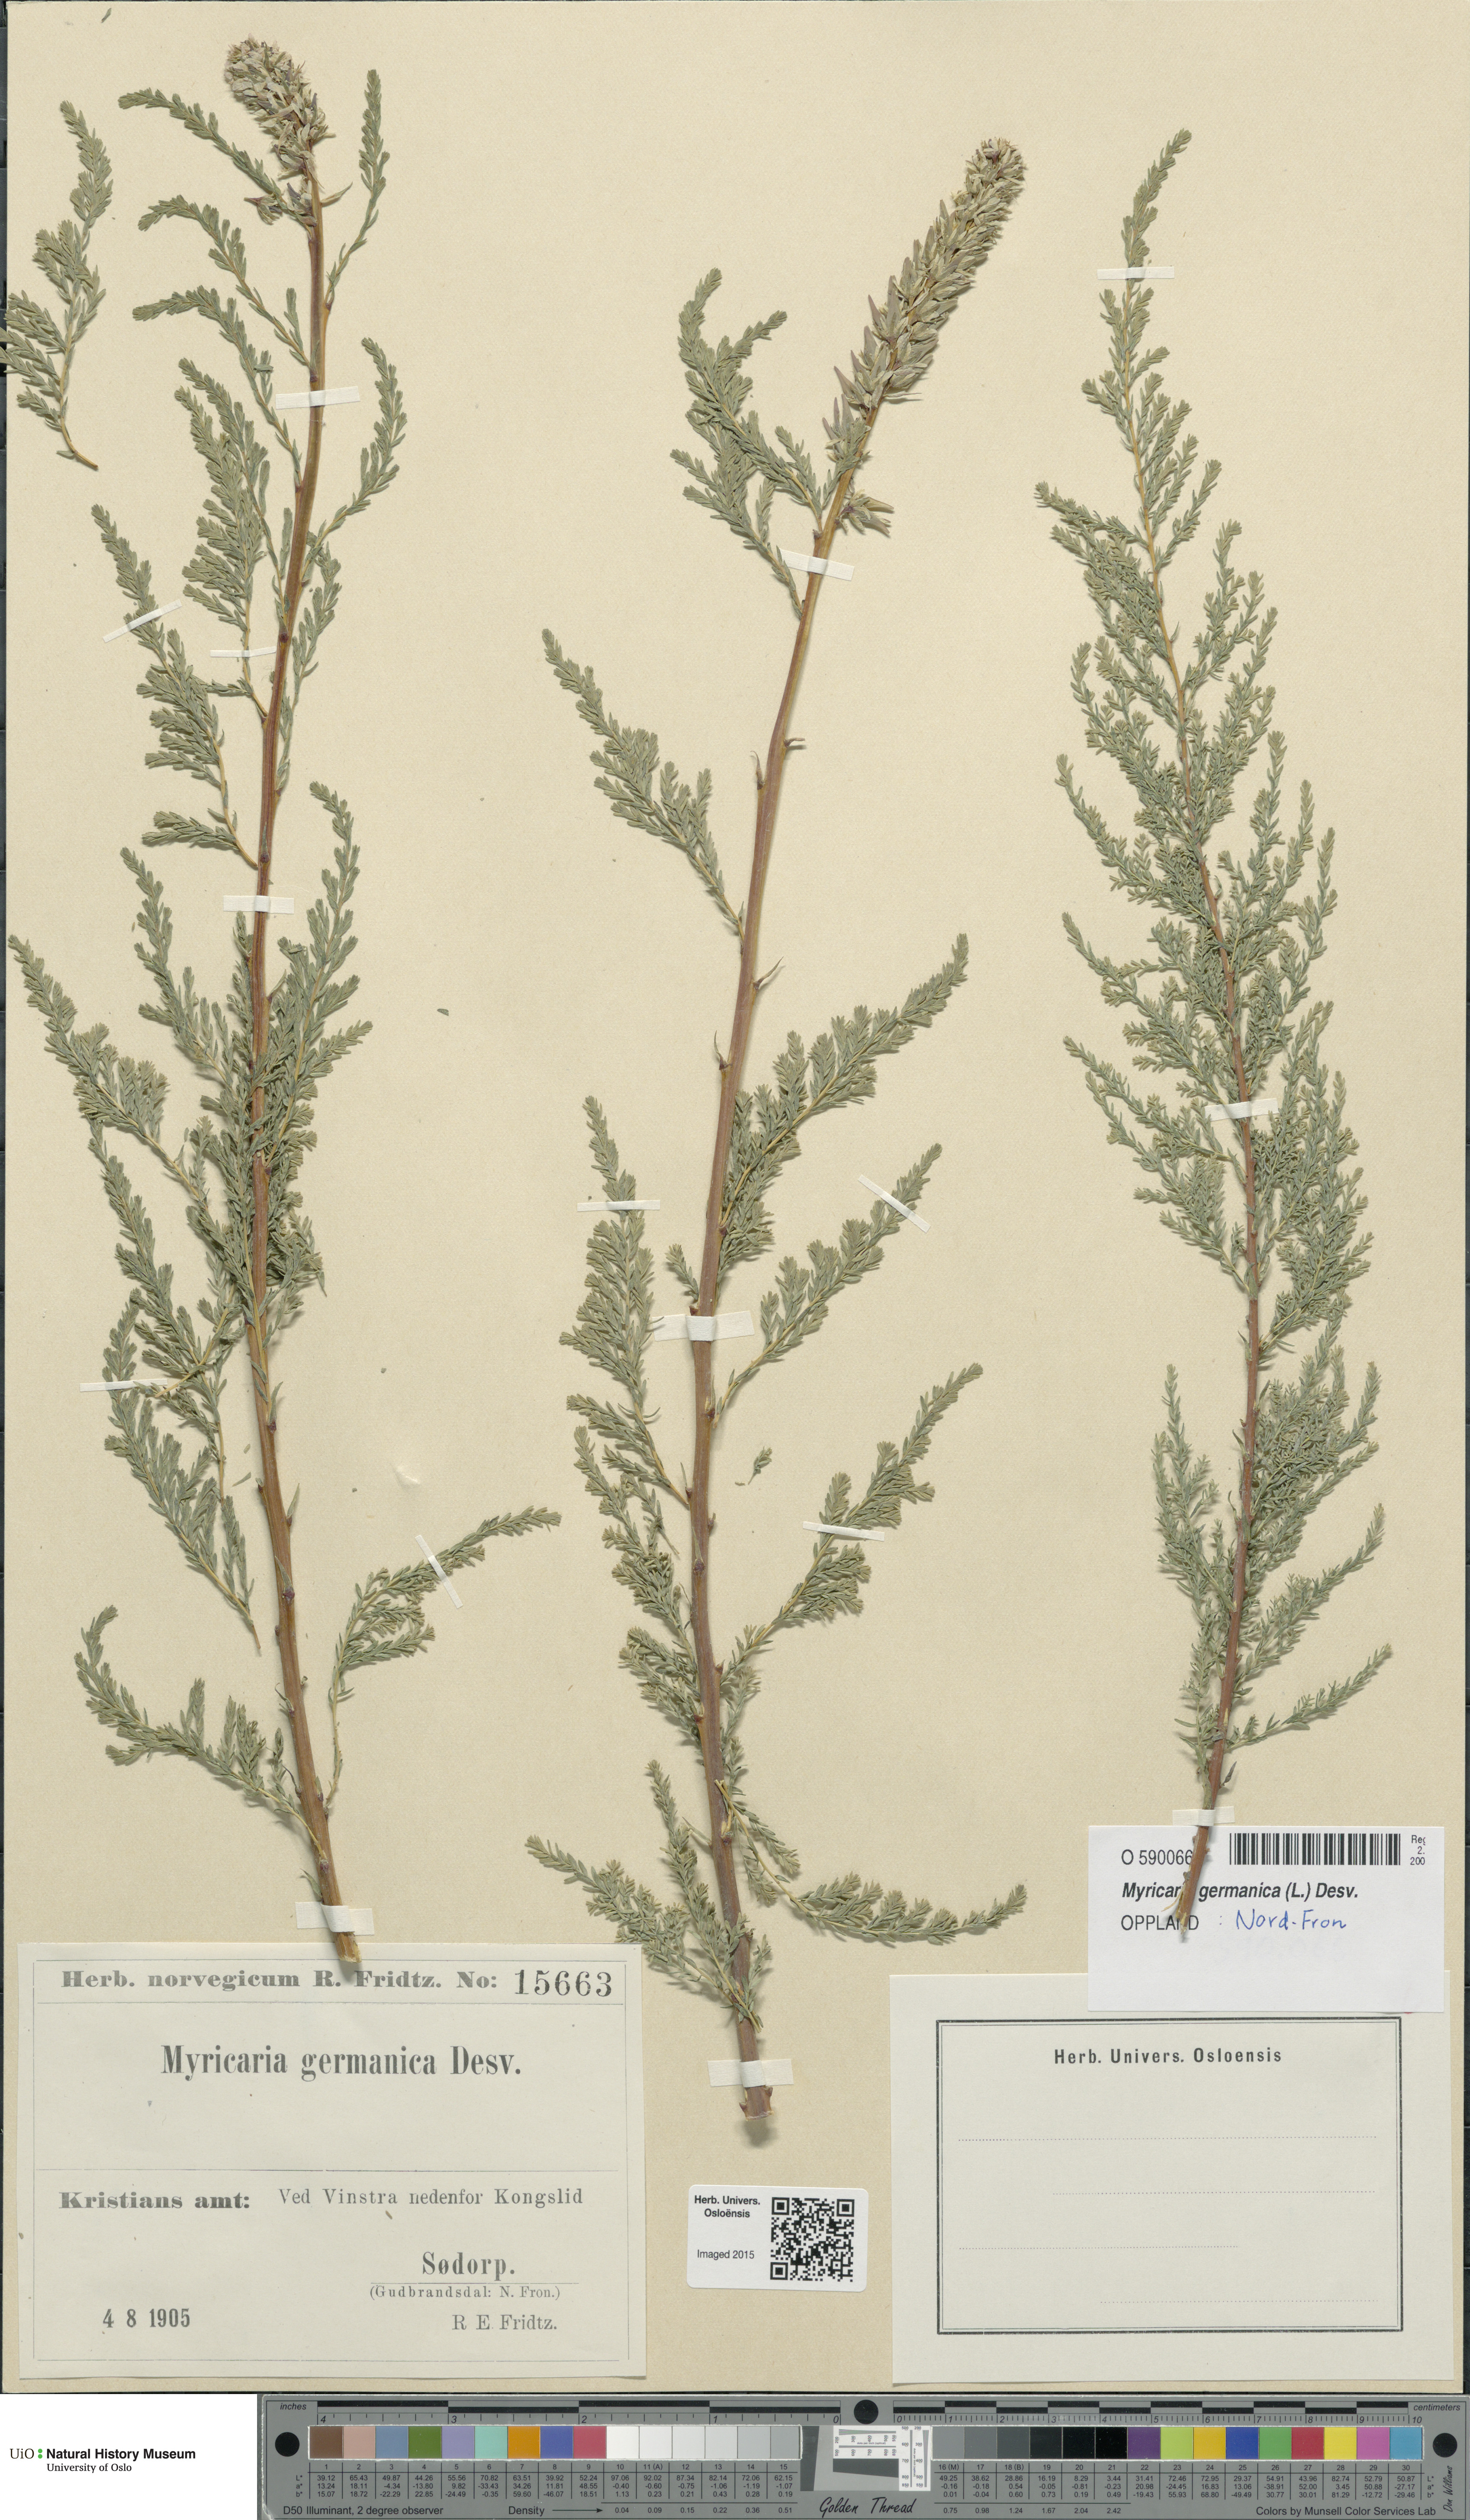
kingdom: Plantae
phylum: Tracheophyta
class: Magnoliopsida
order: Caryophyllales
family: Tamaricaceae
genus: Myricaria
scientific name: Myricaria germanica
